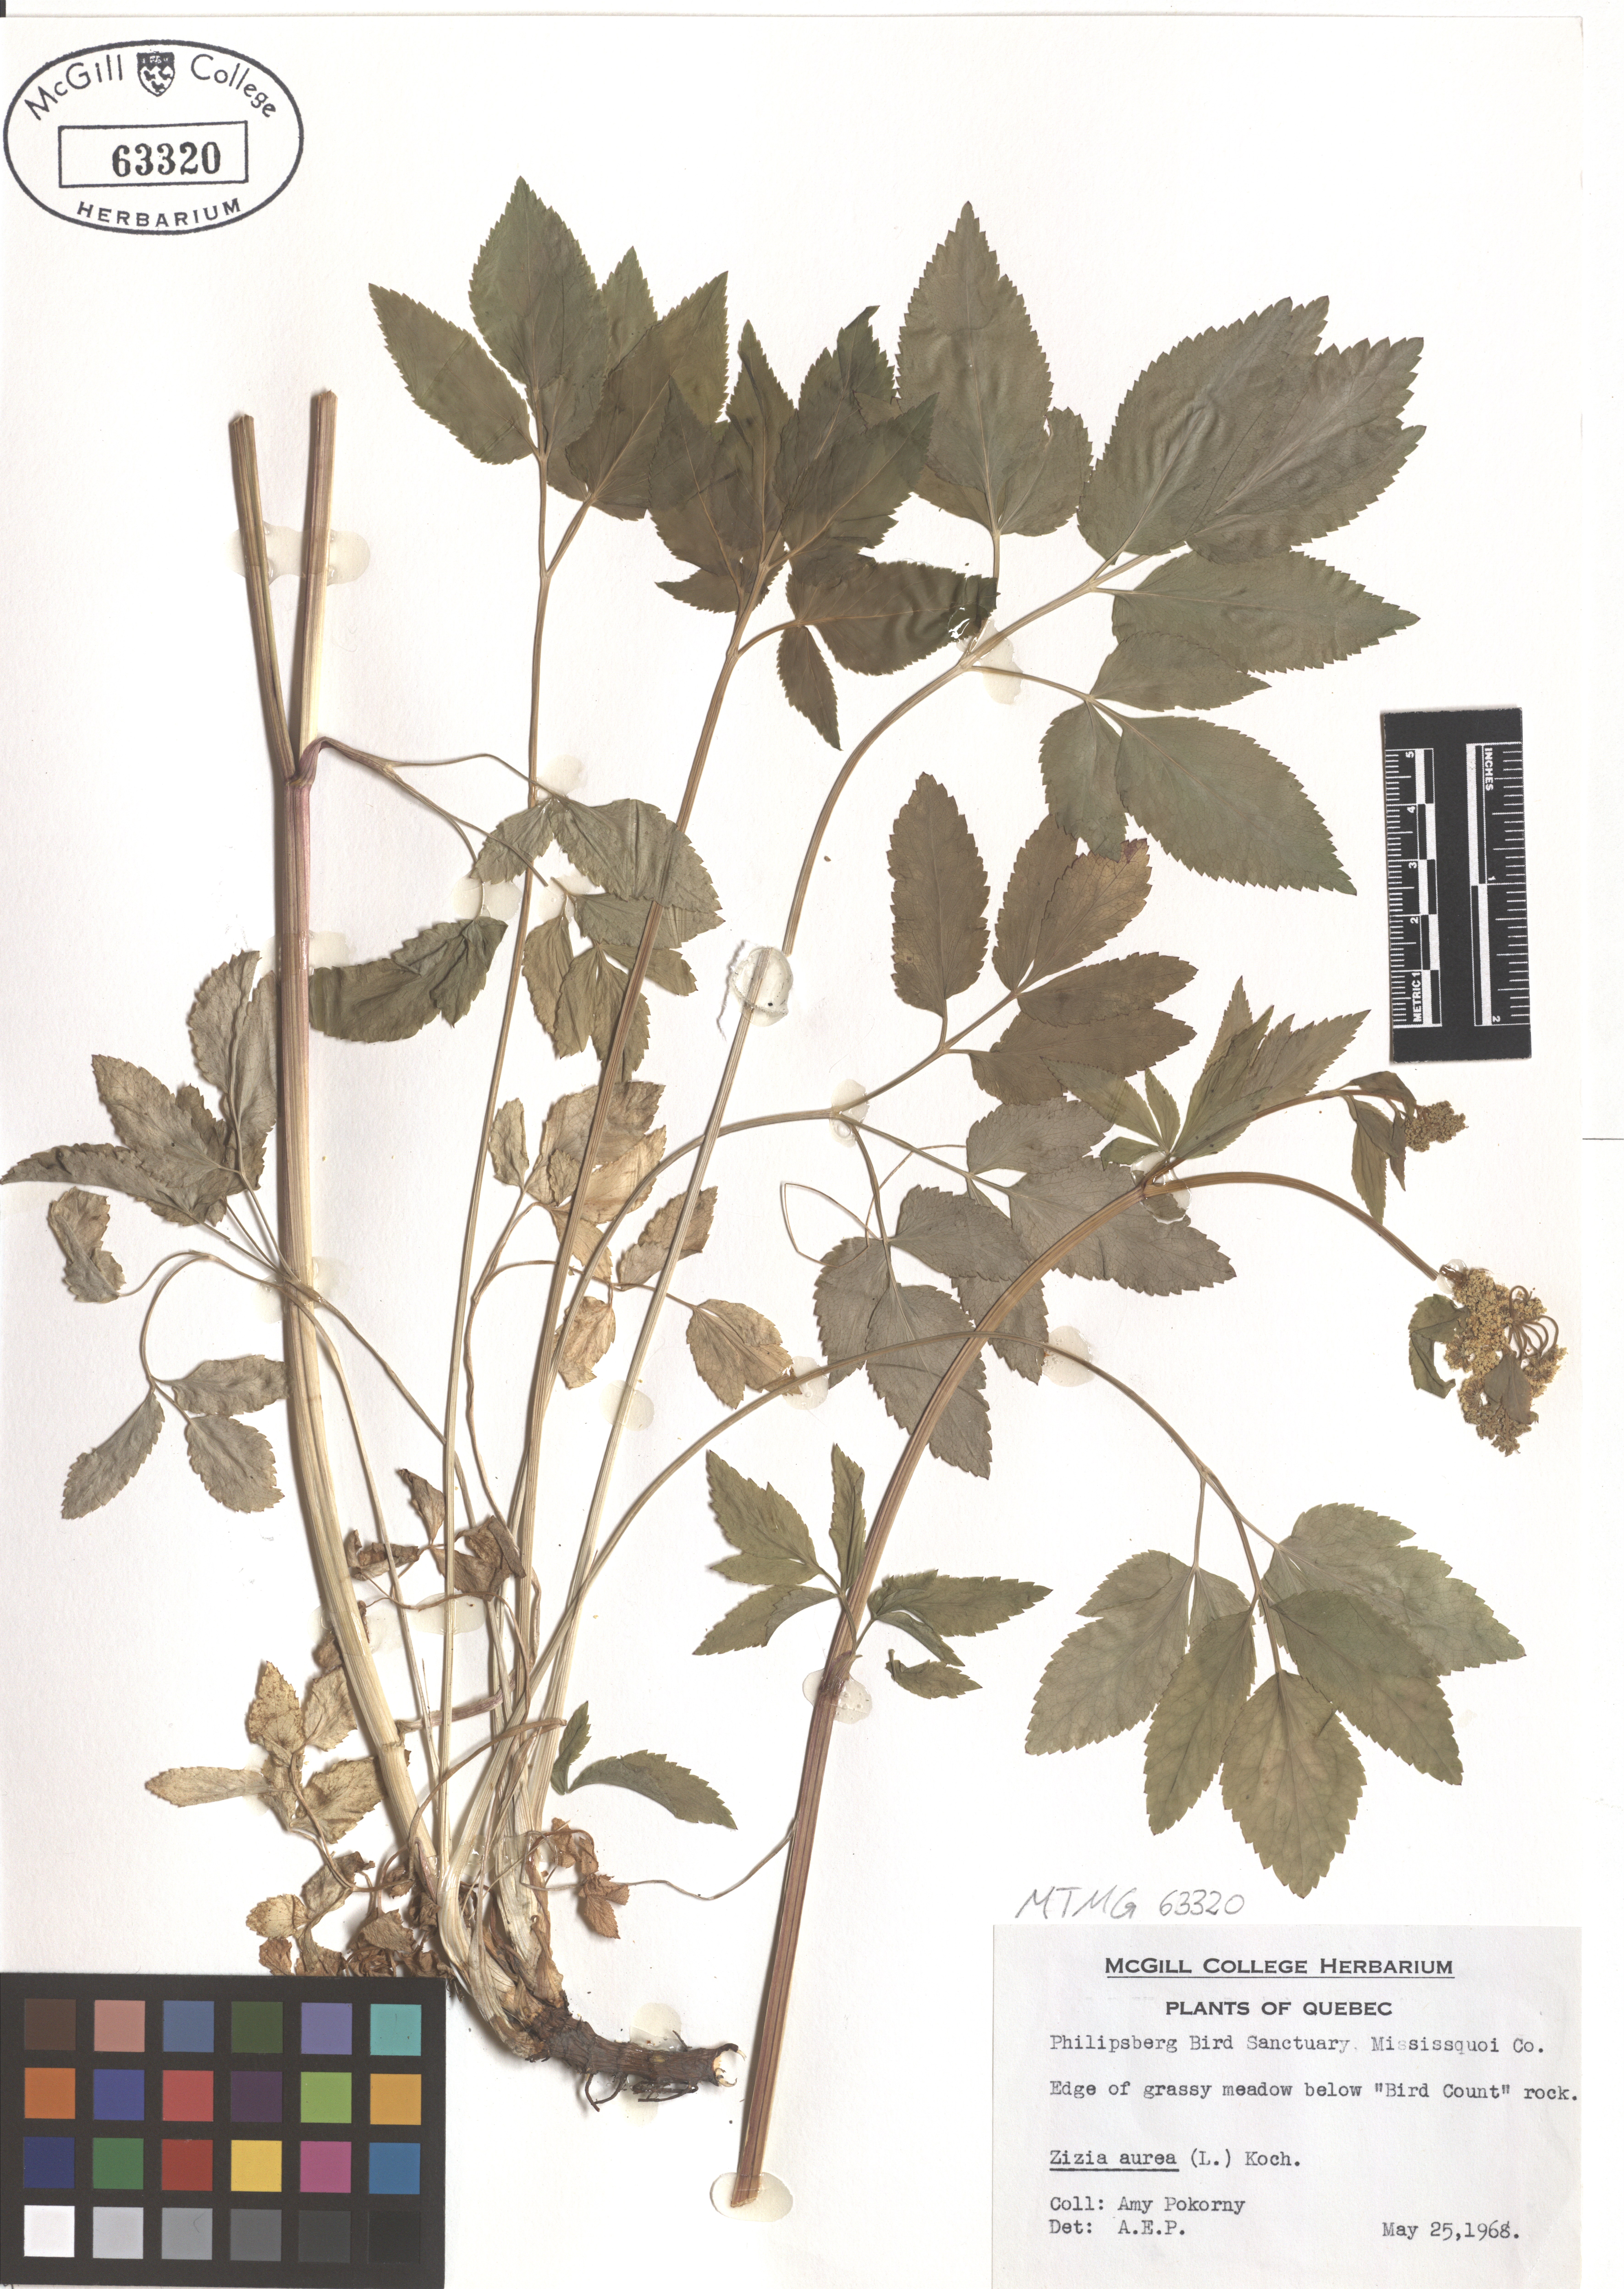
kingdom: Plantae
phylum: Tracheophyta
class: Magnoliopsida
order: Apiales
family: Apiaceae
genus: Zizia
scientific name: Zizia aurea
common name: Golden alexanders
